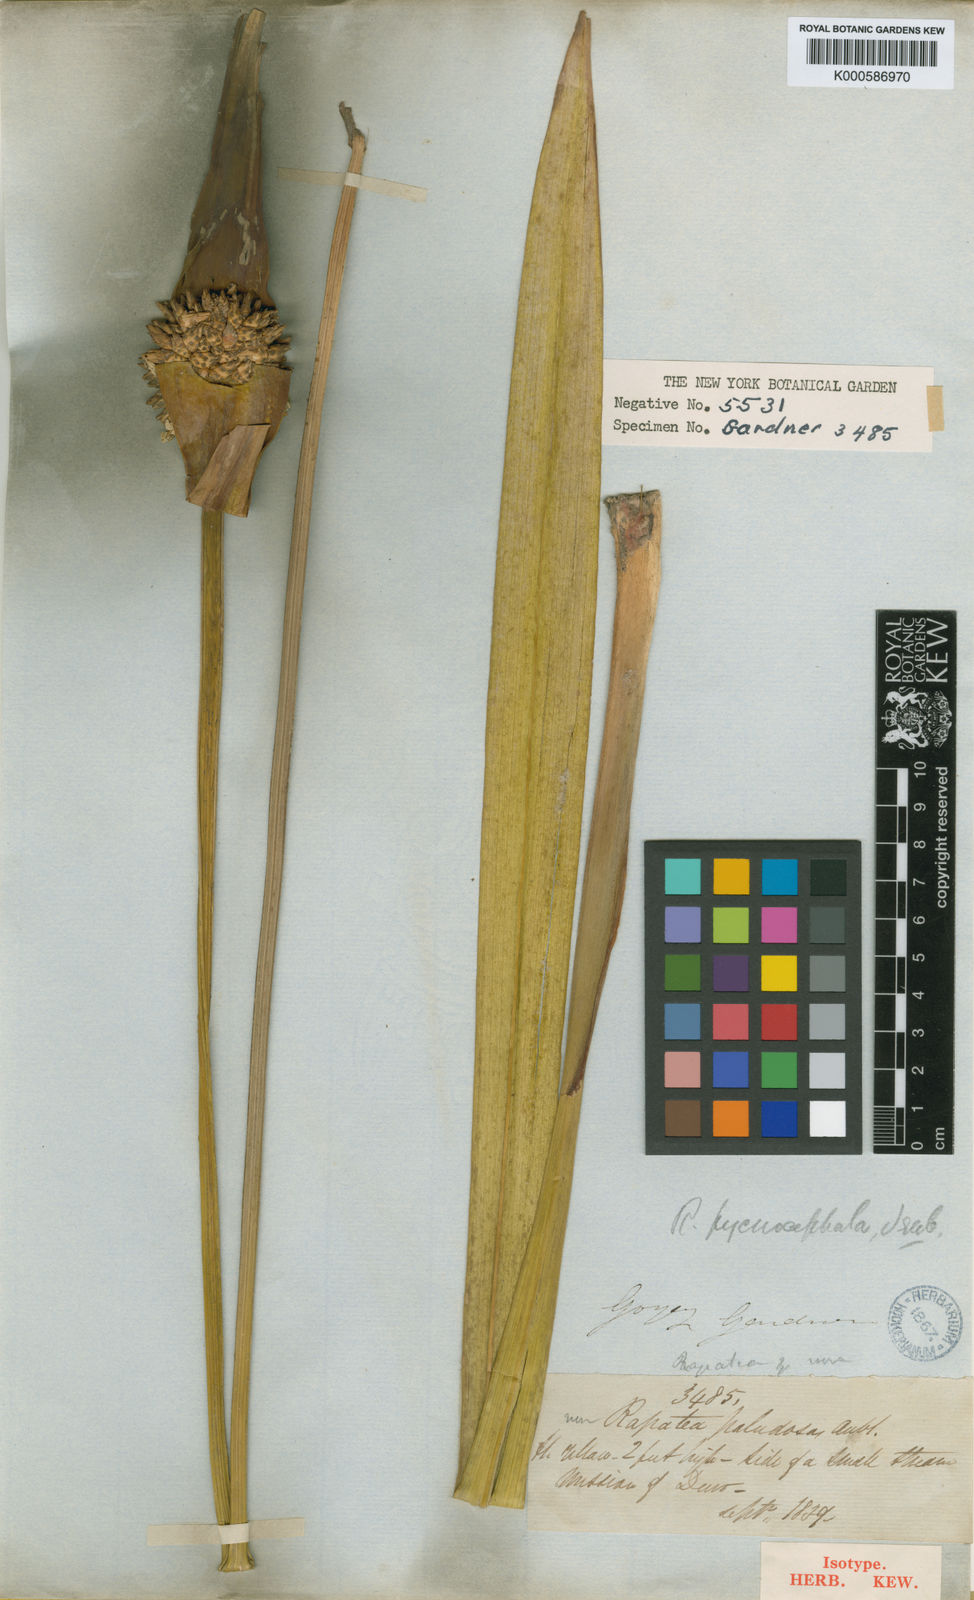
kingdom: Plantae
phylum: Tracheophyta
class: Liliopsida
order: Poales
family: Rapateaceae
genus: Rapatea
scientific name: Rapatea pycnocephala
